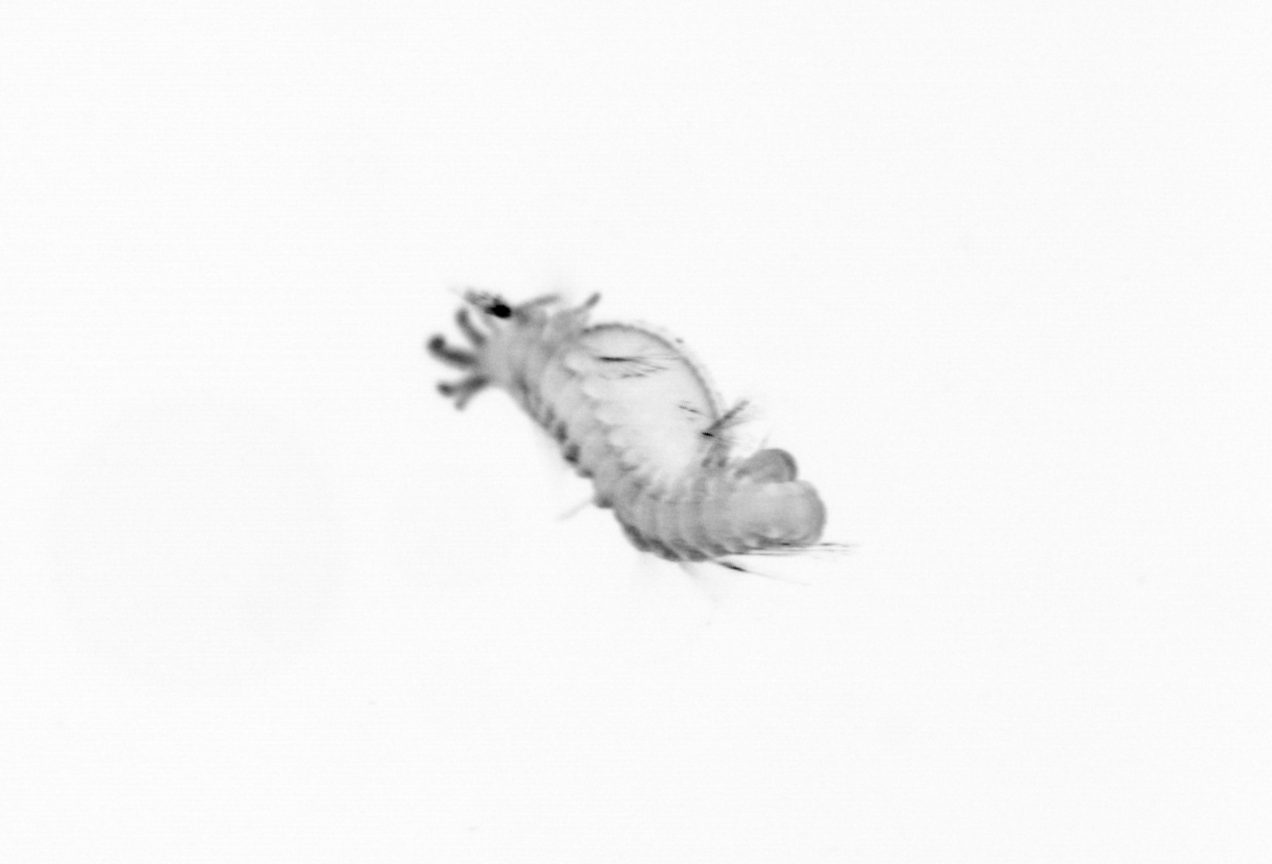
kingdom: Animalia
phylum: Annelida
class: Polychaeta
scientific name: Polychaeta
